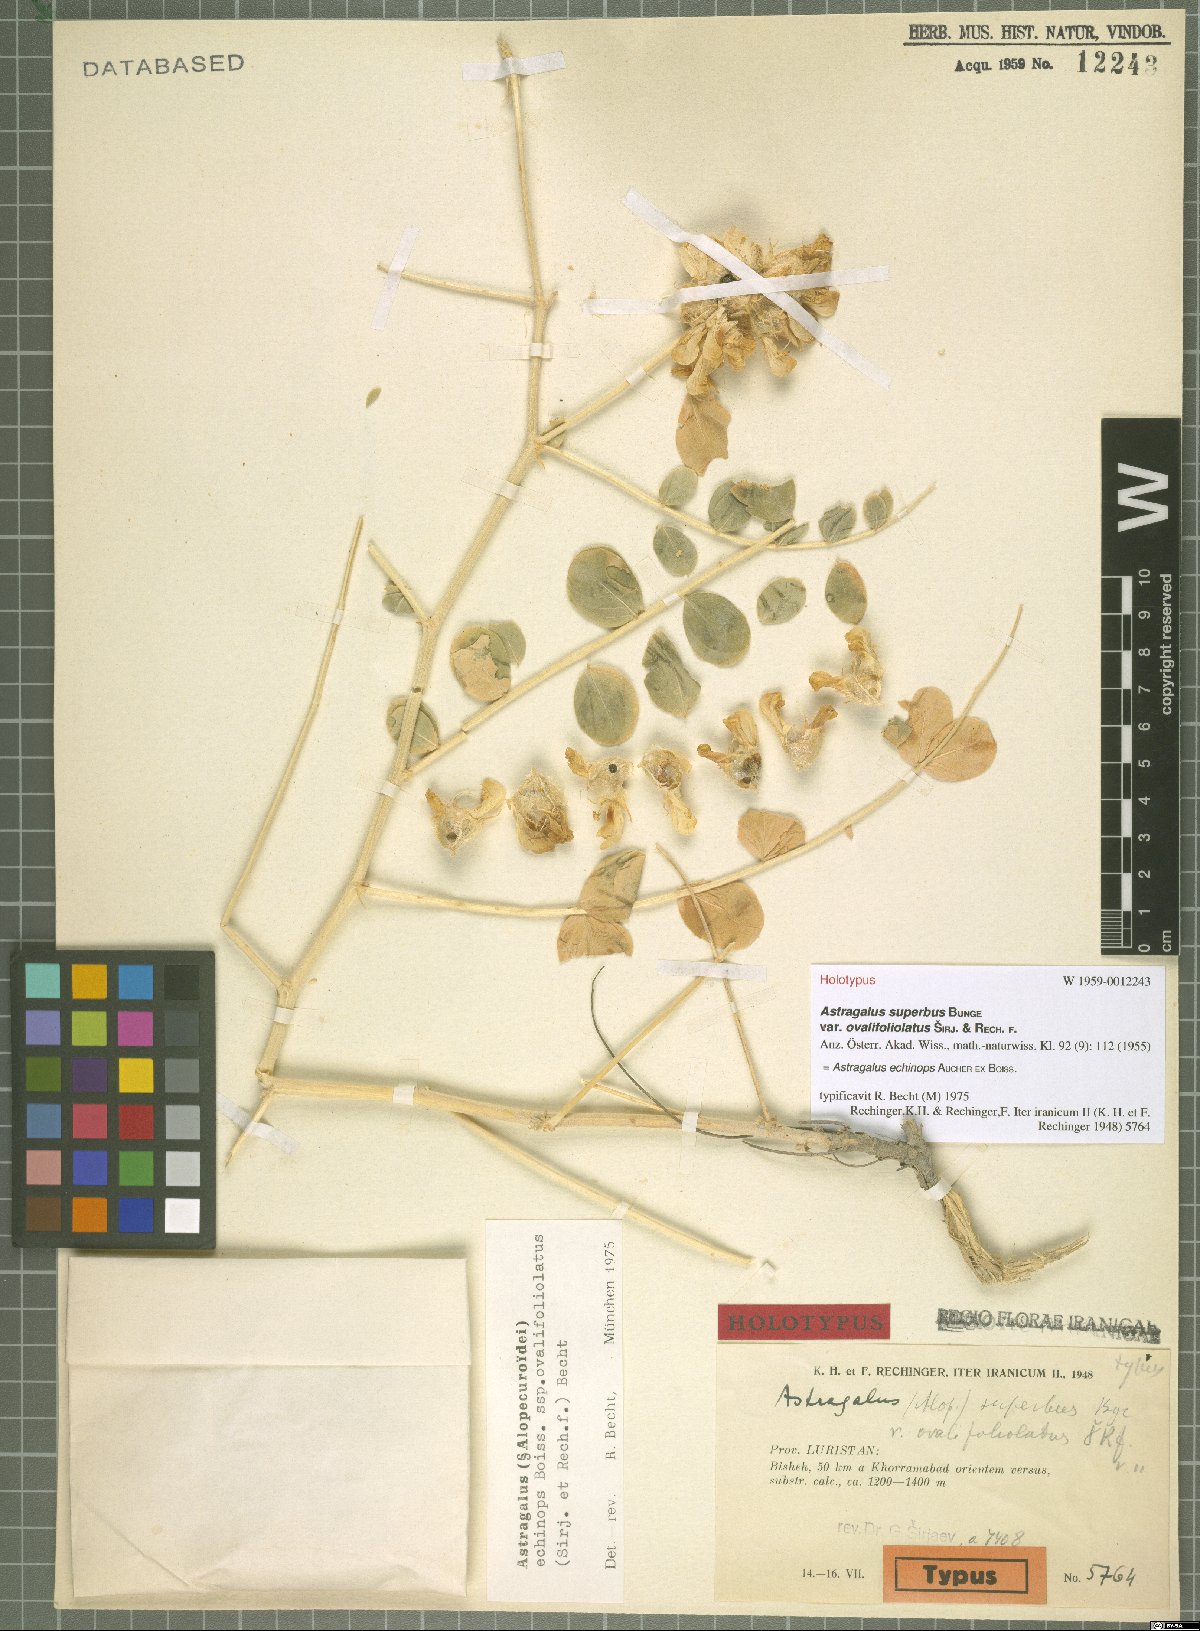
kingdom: Plantae
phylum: Tracheophyta
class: Magnoliopsida
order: Fabales
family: Fabaceae
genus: Astragalus
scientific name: Astragalus echinops
